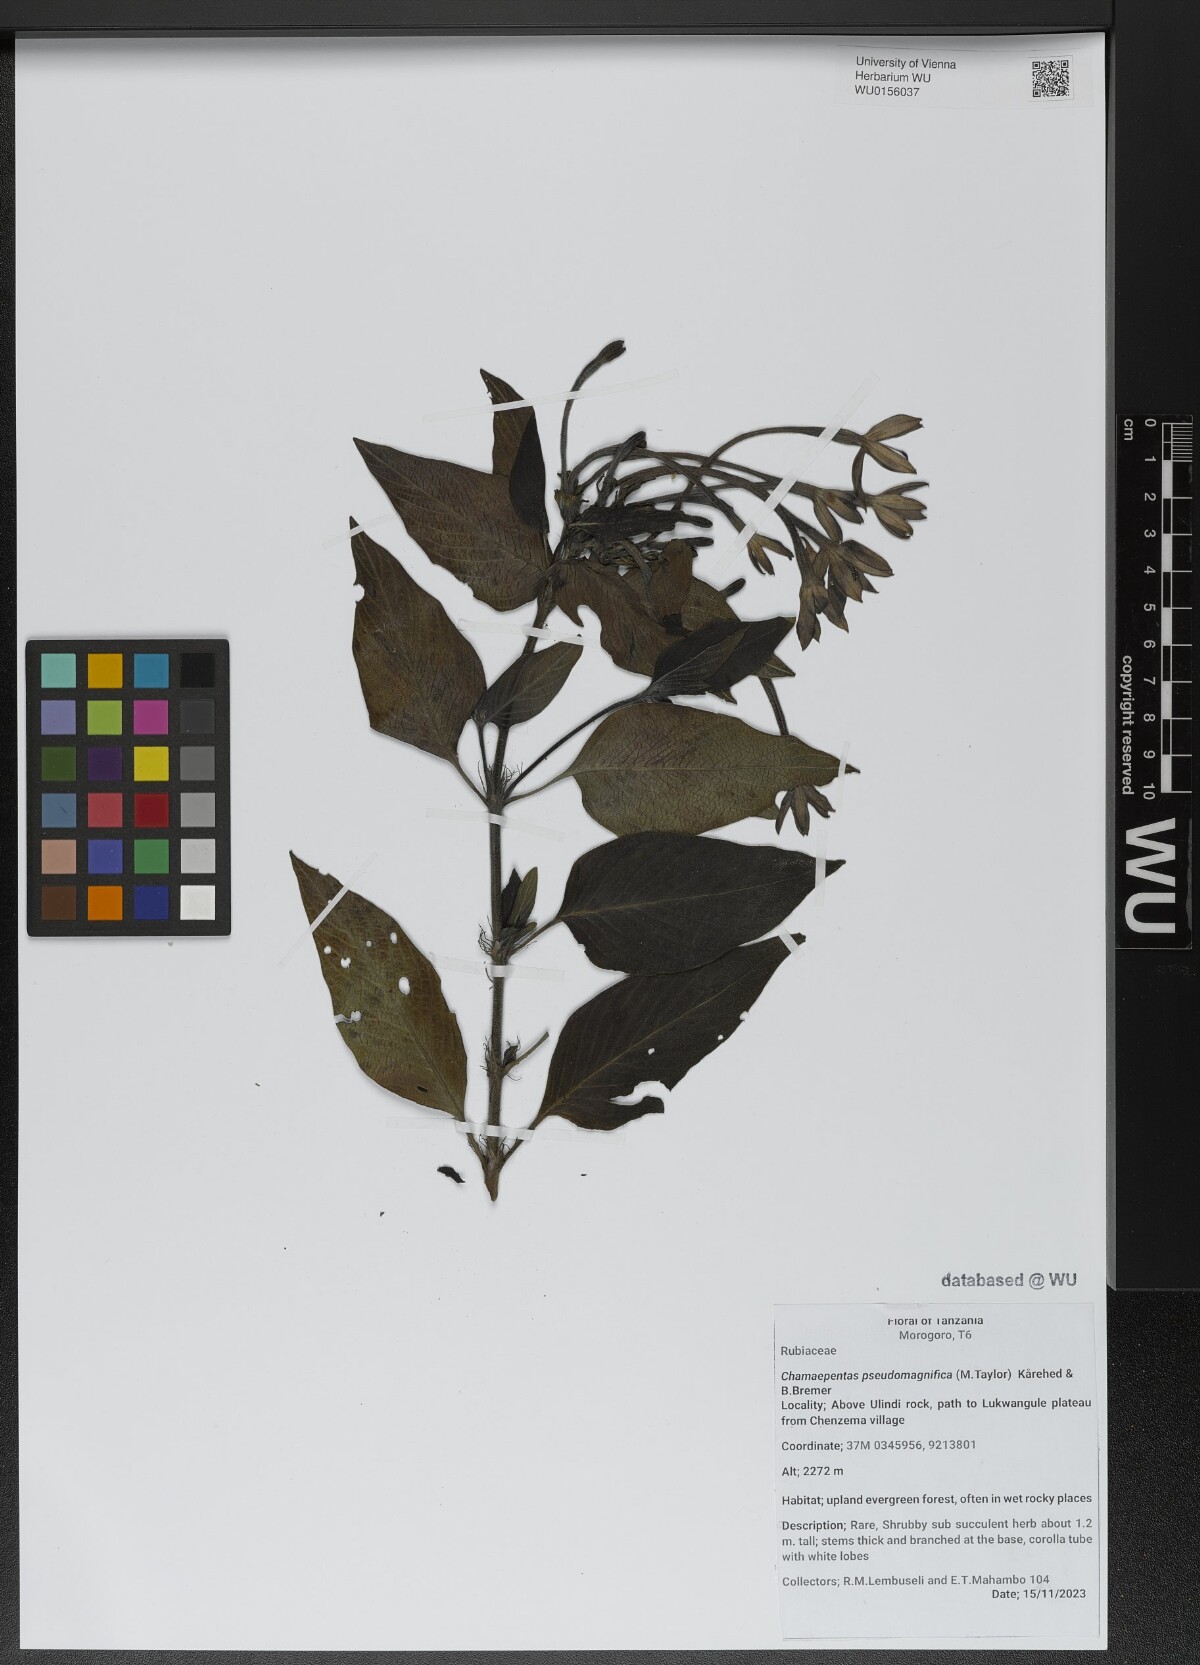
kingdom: Plantae
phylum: Tracheophyta
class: Magnoliopsida
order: Gentianales
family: Rubiaceae
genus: Chamaepentas
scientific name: Chamaepentas pseudomagnifica
